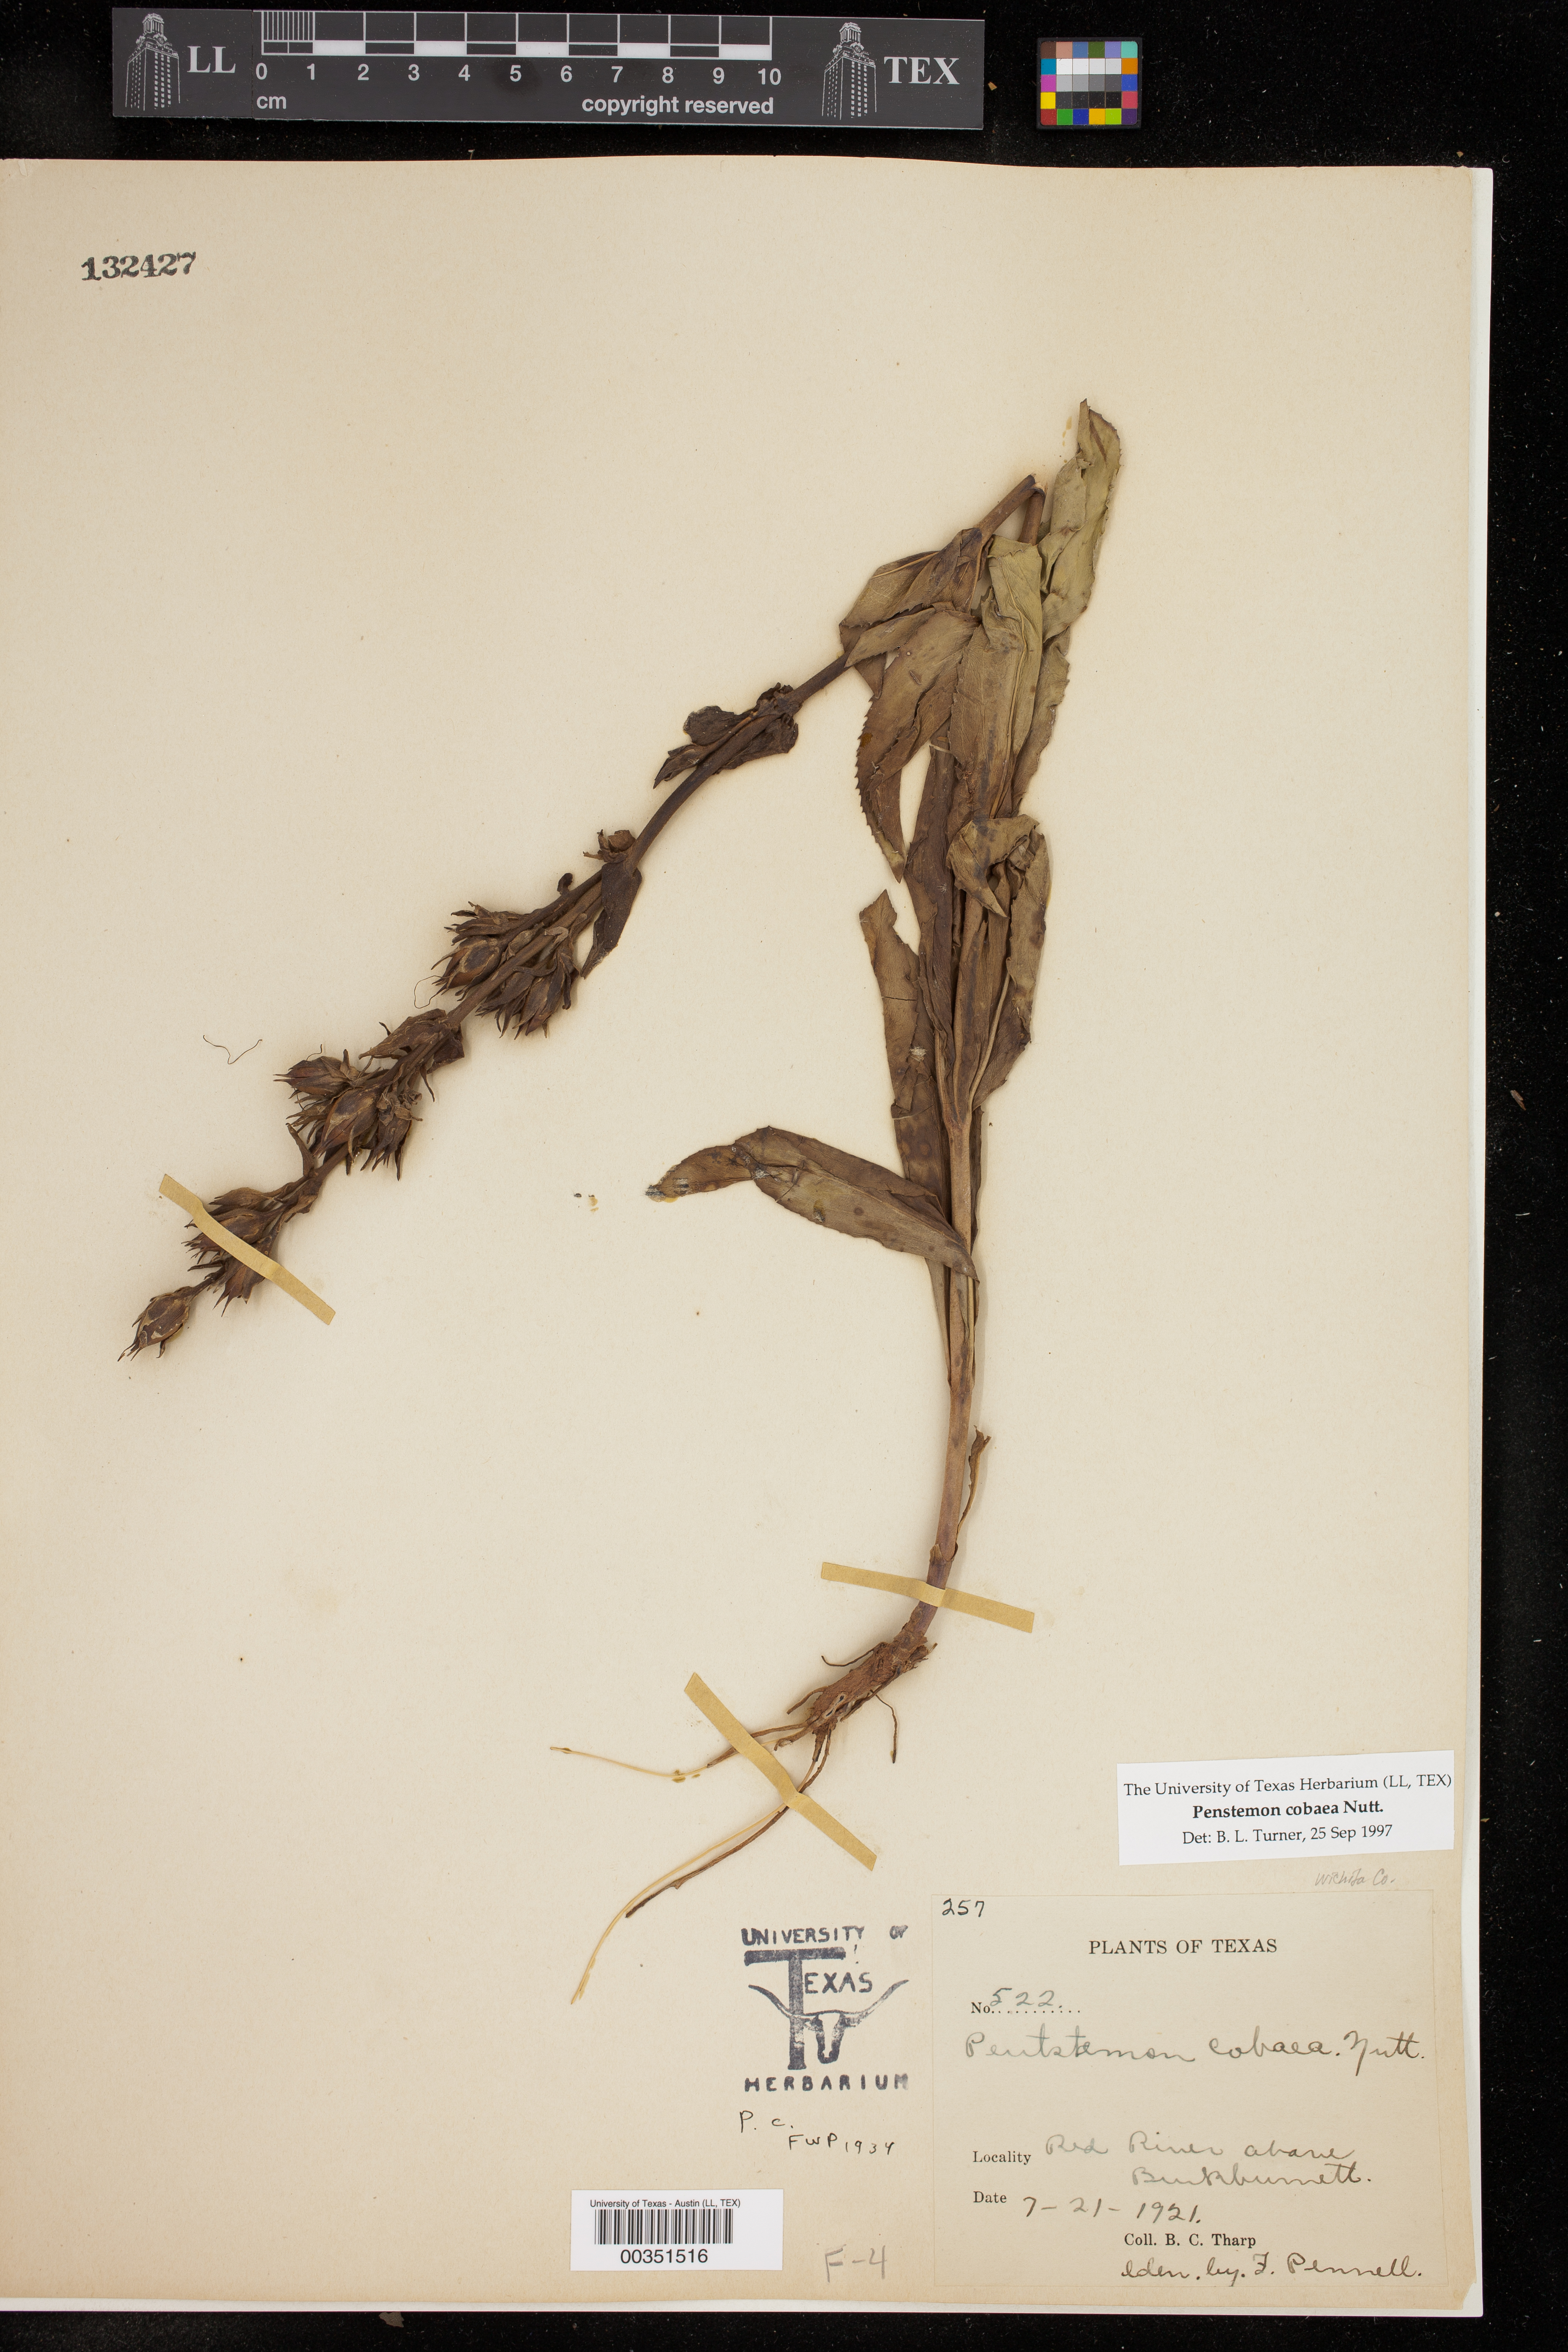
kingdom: Plantae
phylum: Tracheophyta
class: Magnoliopsida
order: Lamiales
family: Plantaginaceae
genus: Penstemon
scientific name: Penstemon cobaea
